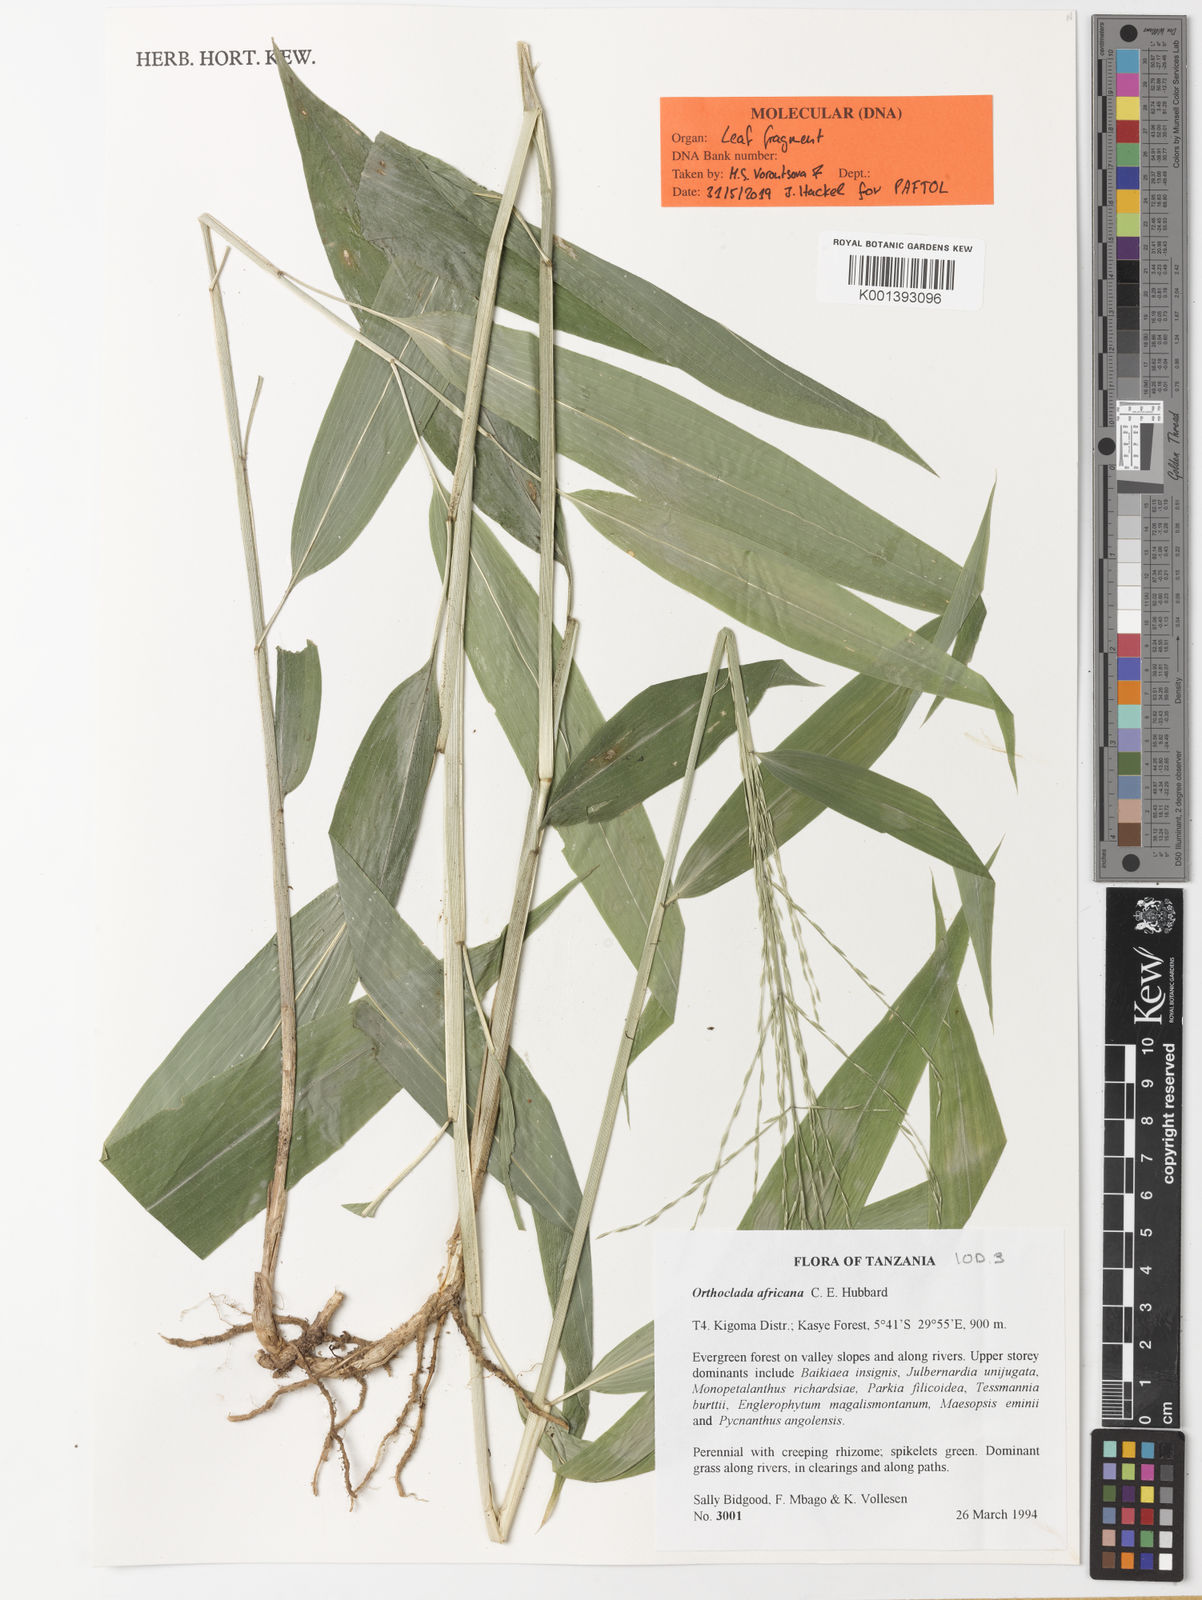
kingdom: Plantae
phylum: Tracheophyta
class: Liliopsida
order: Poales
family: Poaceae
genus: Orthoclada
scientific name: Orthoclada africana
